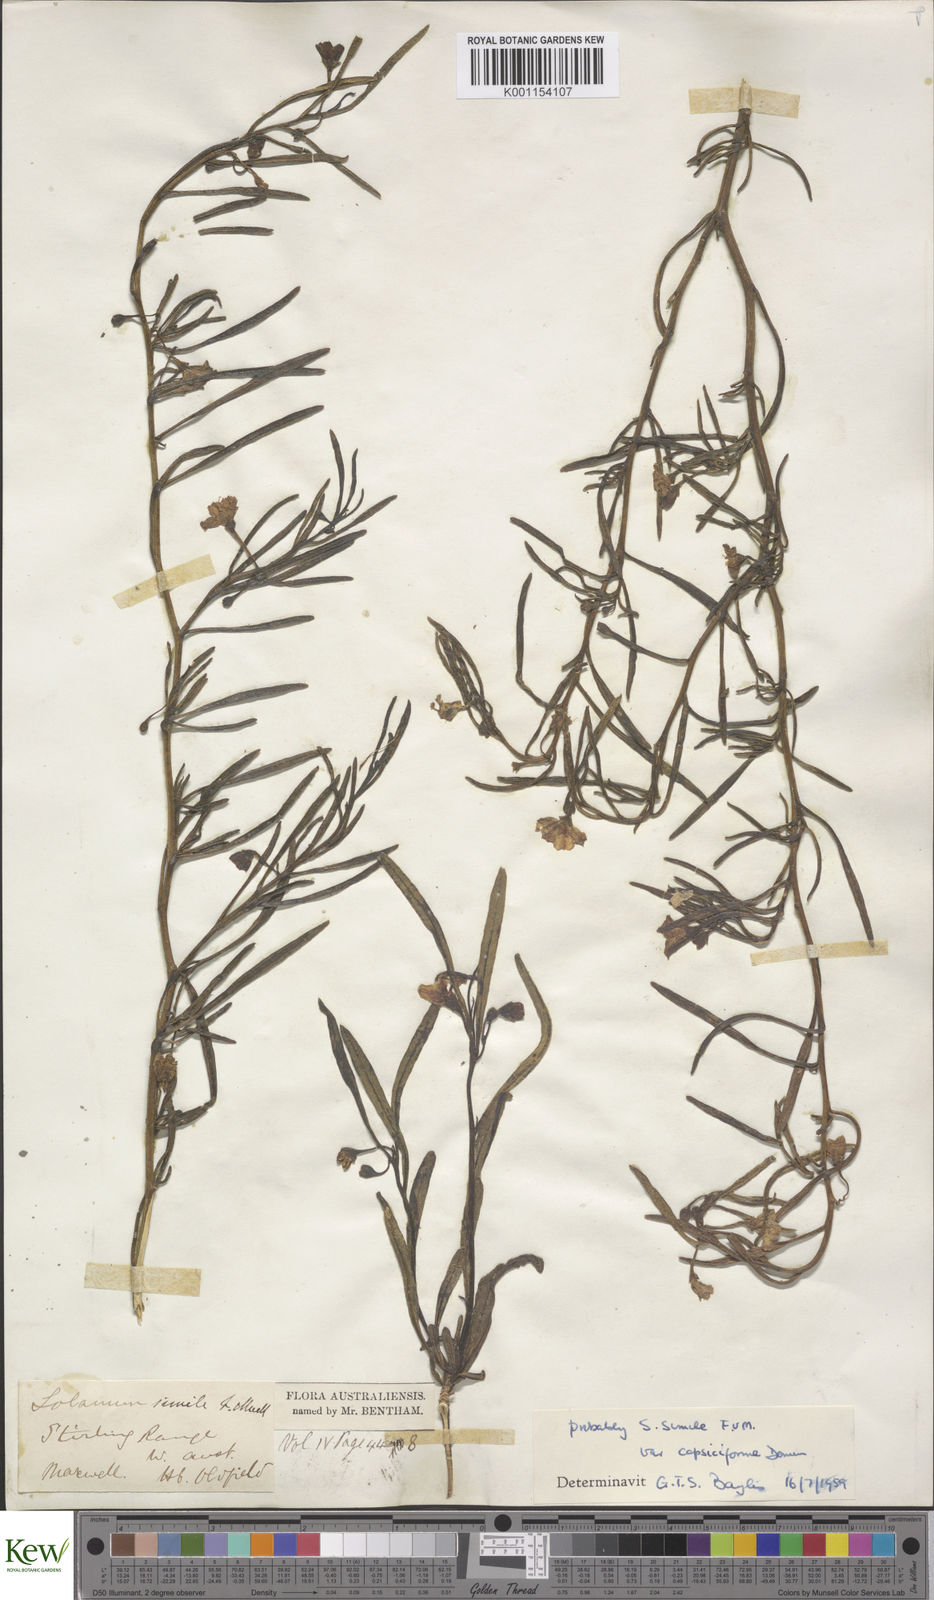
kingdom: Plantae
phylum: Tracheophyta
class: Magnoliopsida
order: Solanales
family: Solanaceae
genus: Solanum
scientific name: Solanum
